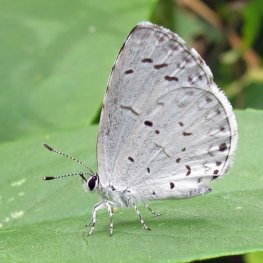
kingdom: Animalia
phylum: Arthropoda
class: Insecta
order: Lepidoptera
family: Lycaenidae
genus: Cyaniris
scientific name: Cyaniris neglecta
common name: Summer Azure
